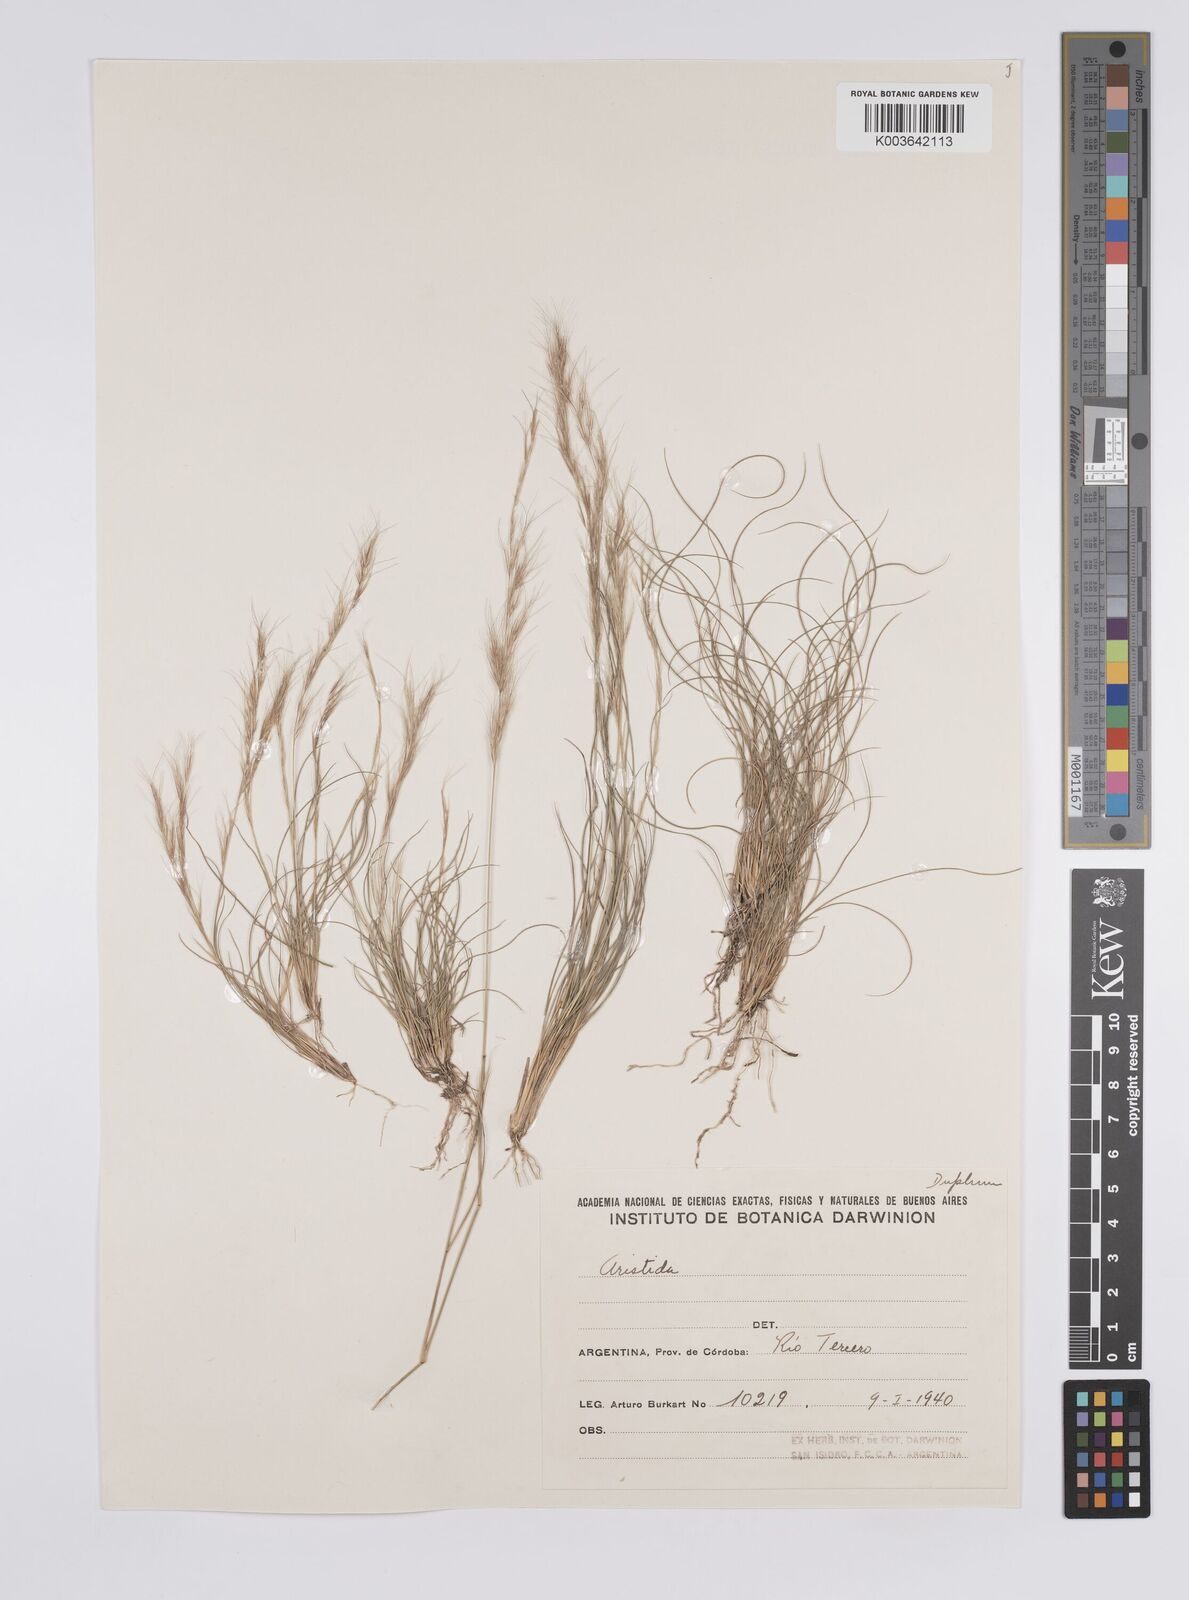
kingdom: Plantae
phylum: Tracheophyta
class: Liliopsida
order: Poales
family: Poaceae
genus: Aristida
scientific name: Aristida adscensionis
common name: Sixweeks threeawn
